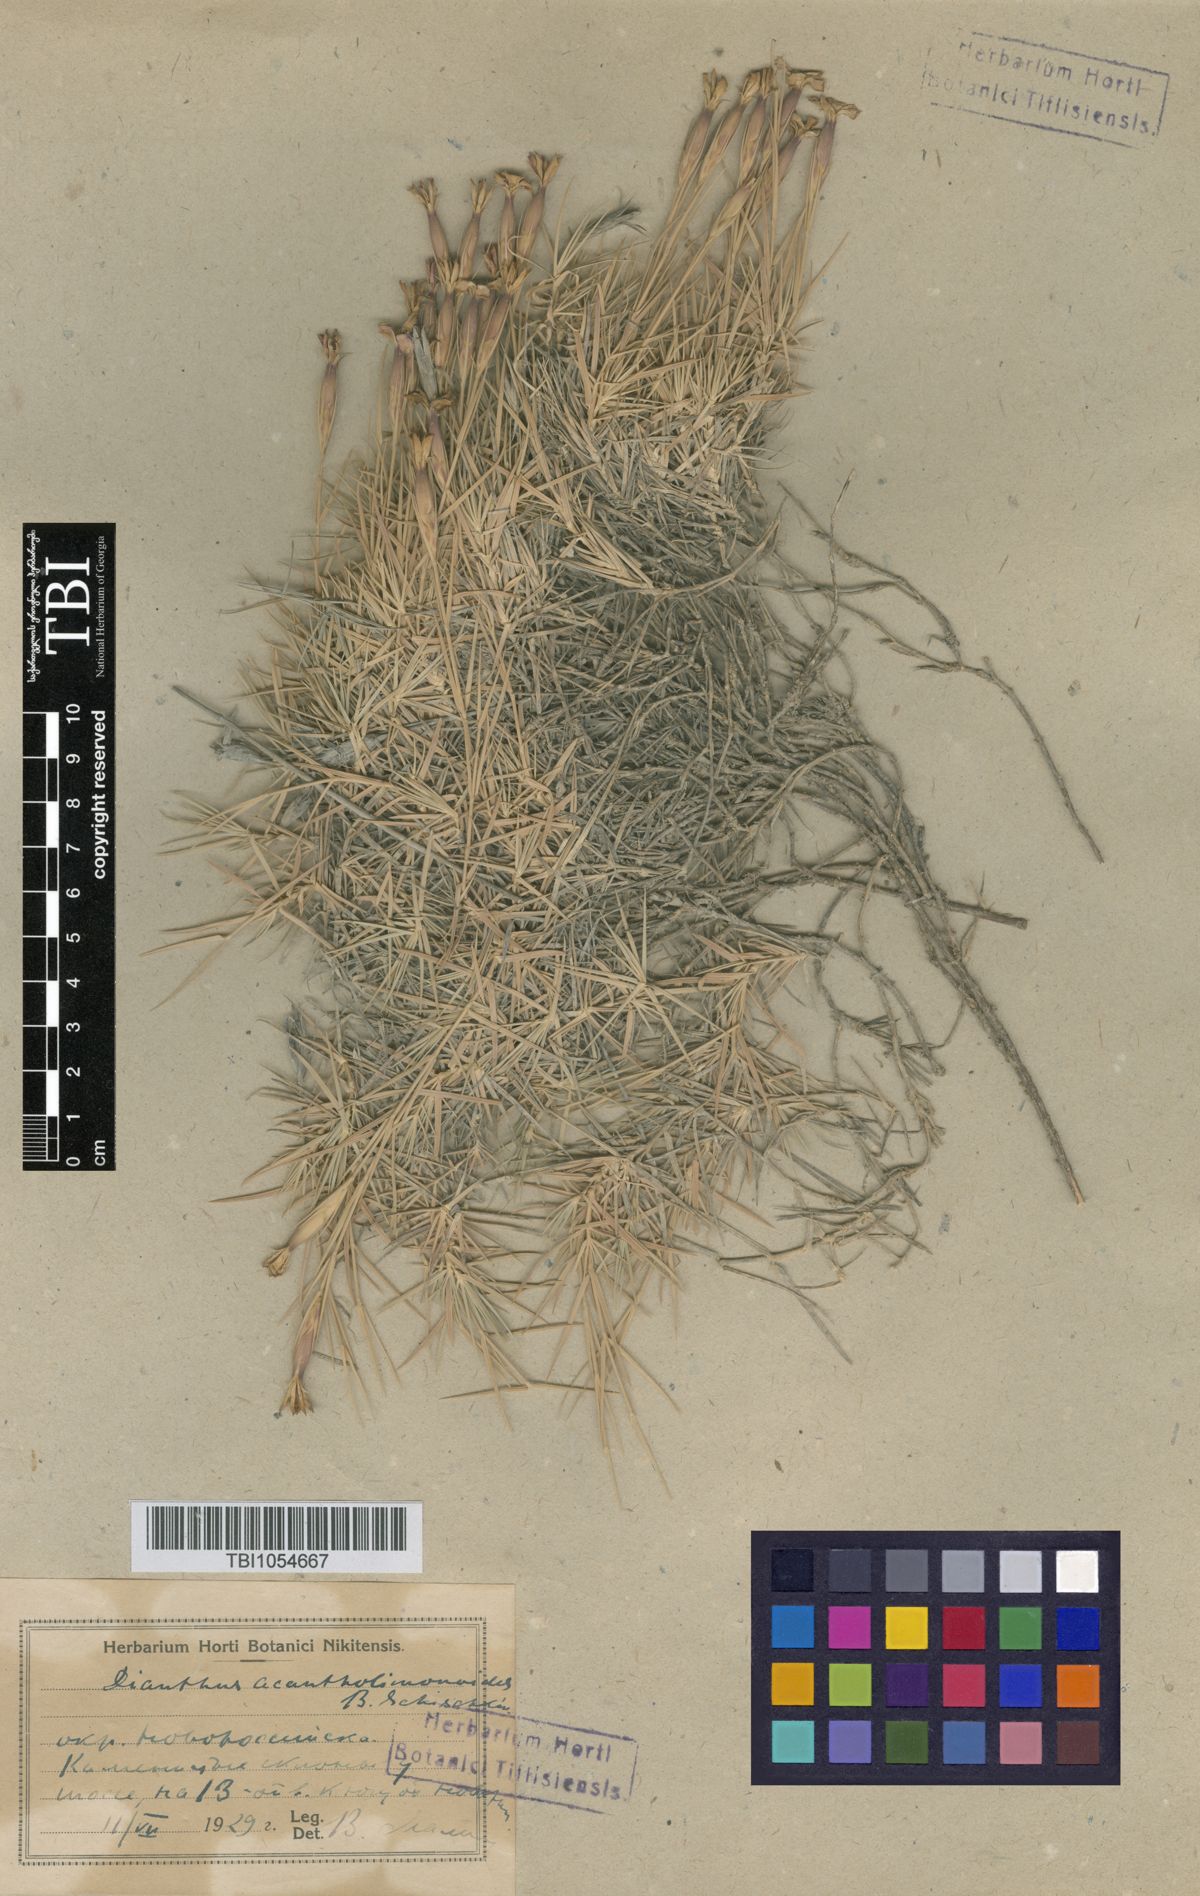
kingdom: Plantae
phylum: Tracheophyta
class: Magnoliopsida
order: Caryophyllales
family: Caryophyllaceae
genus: Dianthus
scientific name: Dianthus
